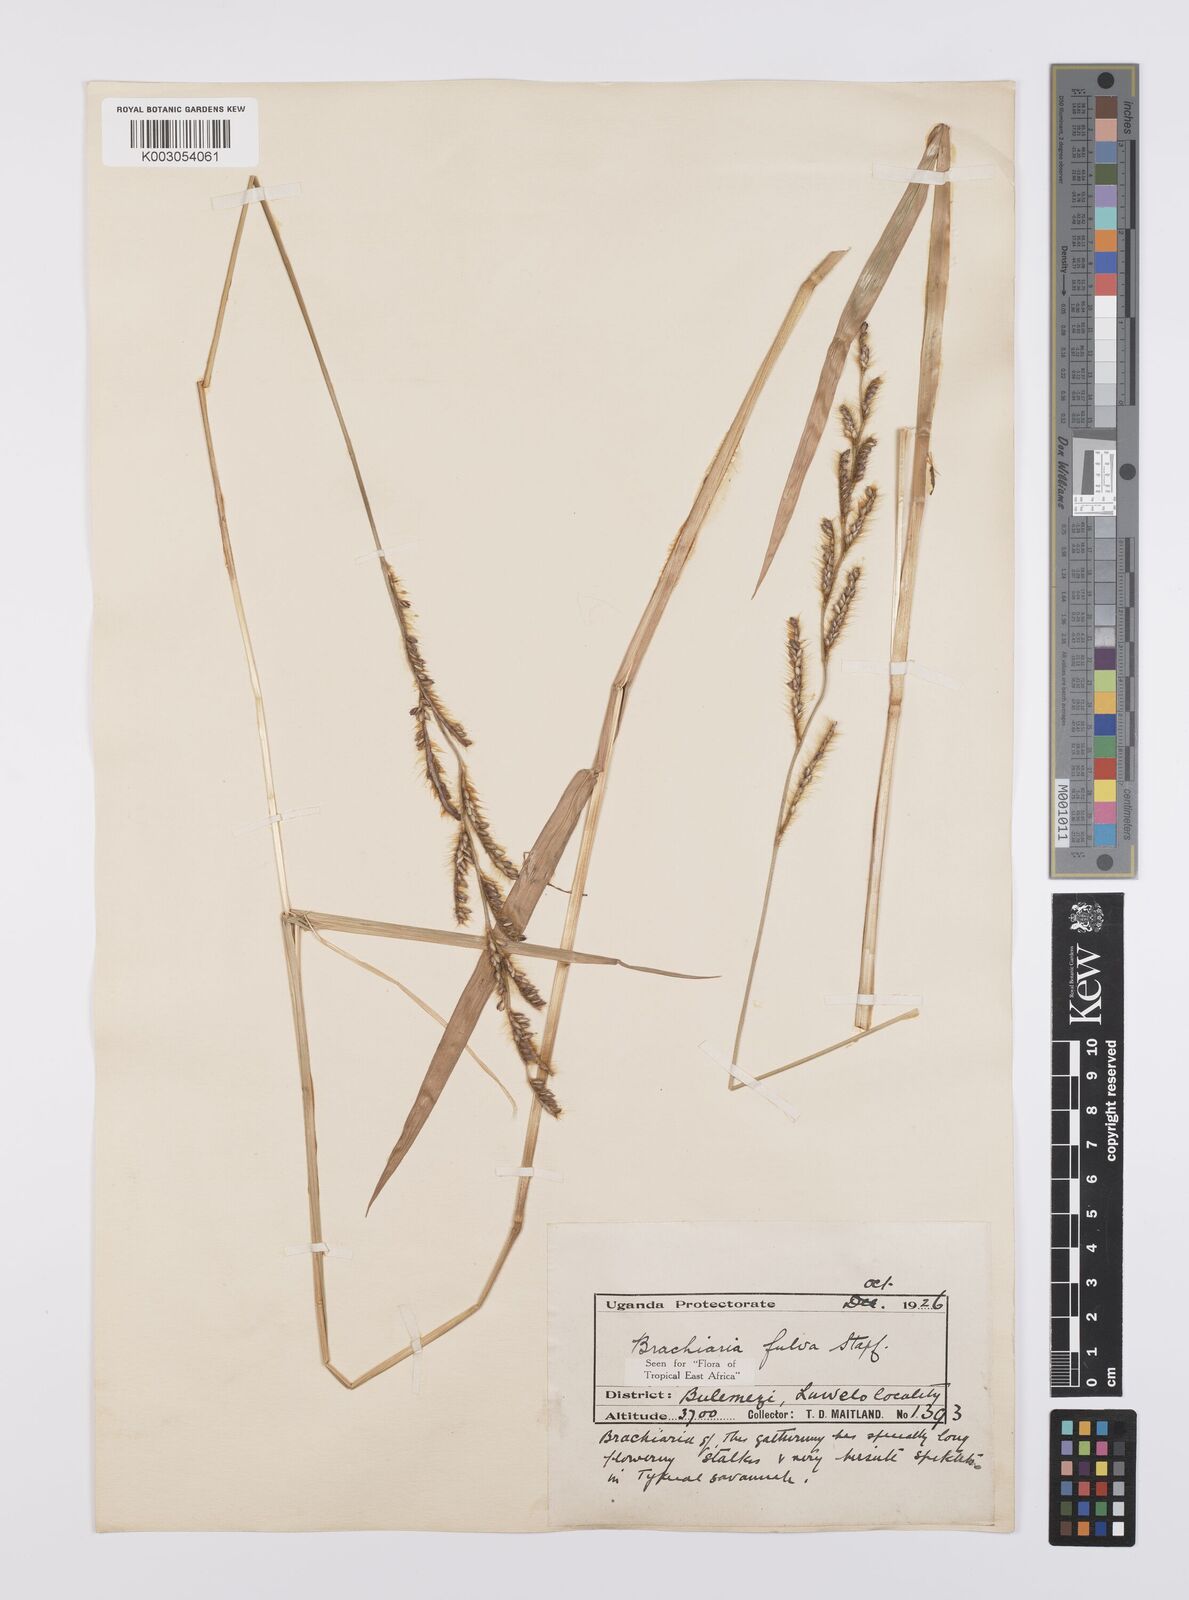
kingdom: Plantae
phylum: Tracheophyta
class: Liliopsida
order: Poales
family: Poaceae
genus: Urochloa
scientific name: Urochloa jubata
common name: Buffalograss
